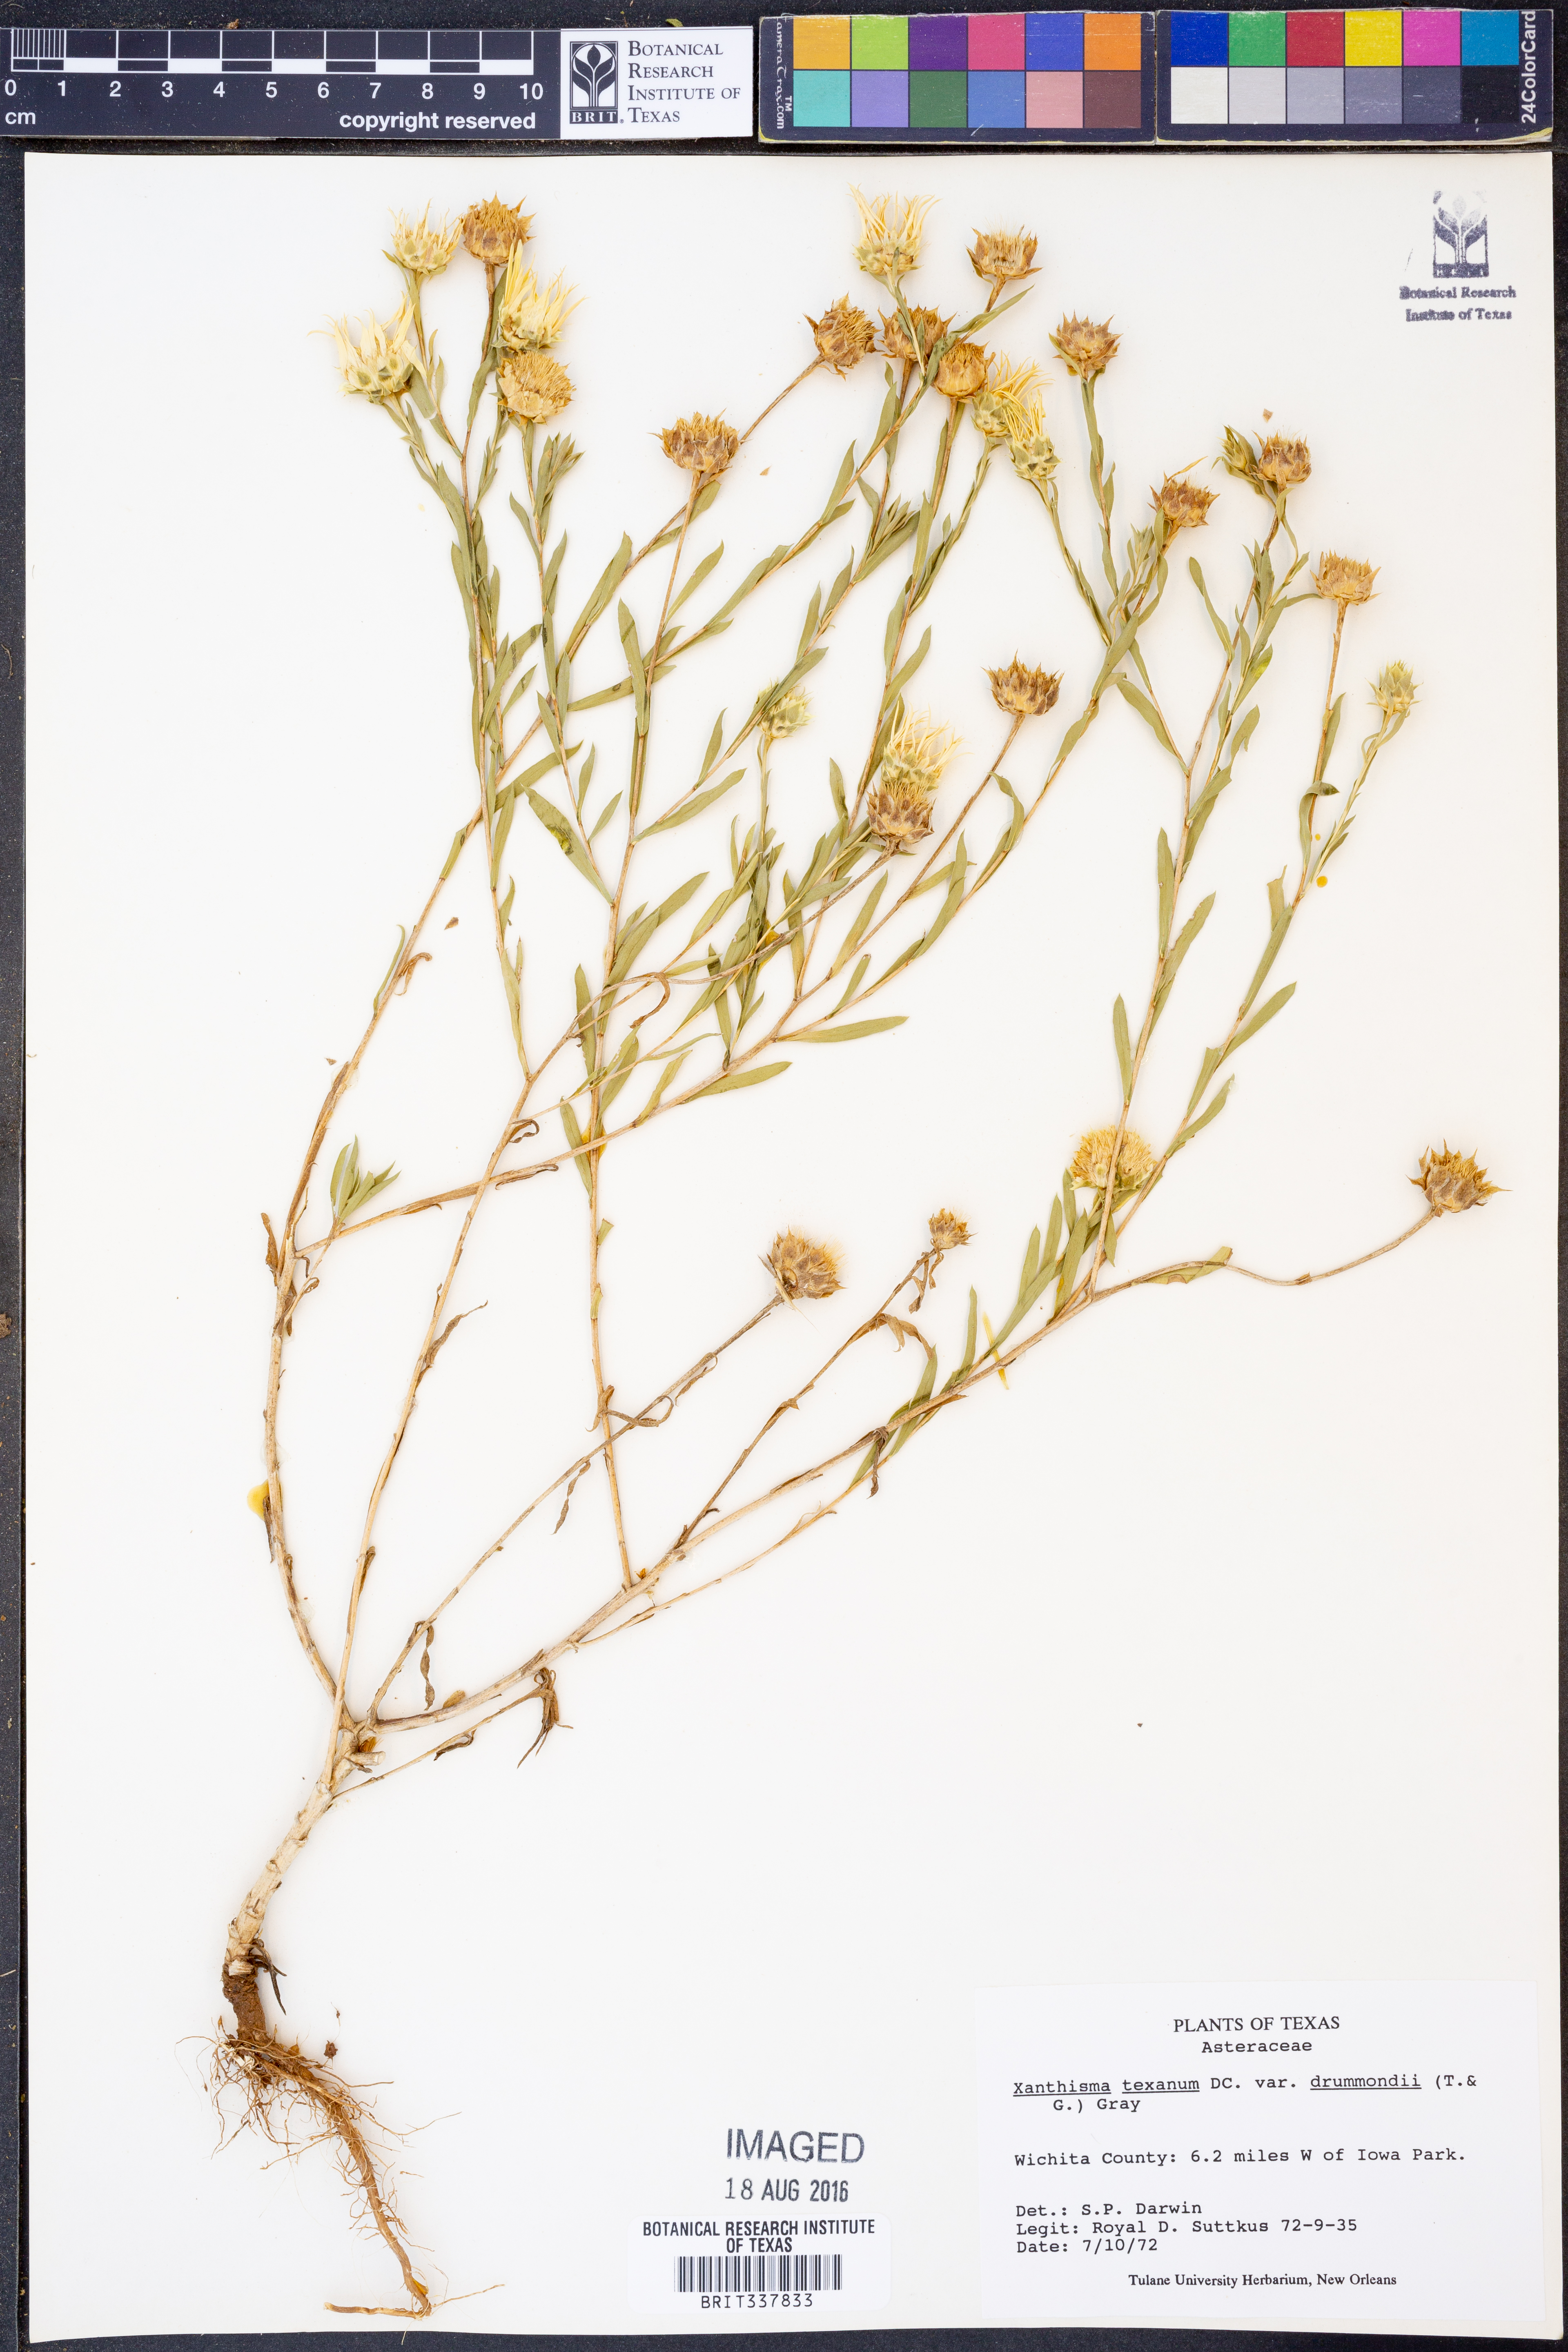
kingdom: Plantae
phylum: Tracheophyta
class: Magnoliopsida
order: Asterales
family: Asteraceae
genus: Xanthisma
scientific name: Xanthisma texanum
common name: Texas sleepy daisy
